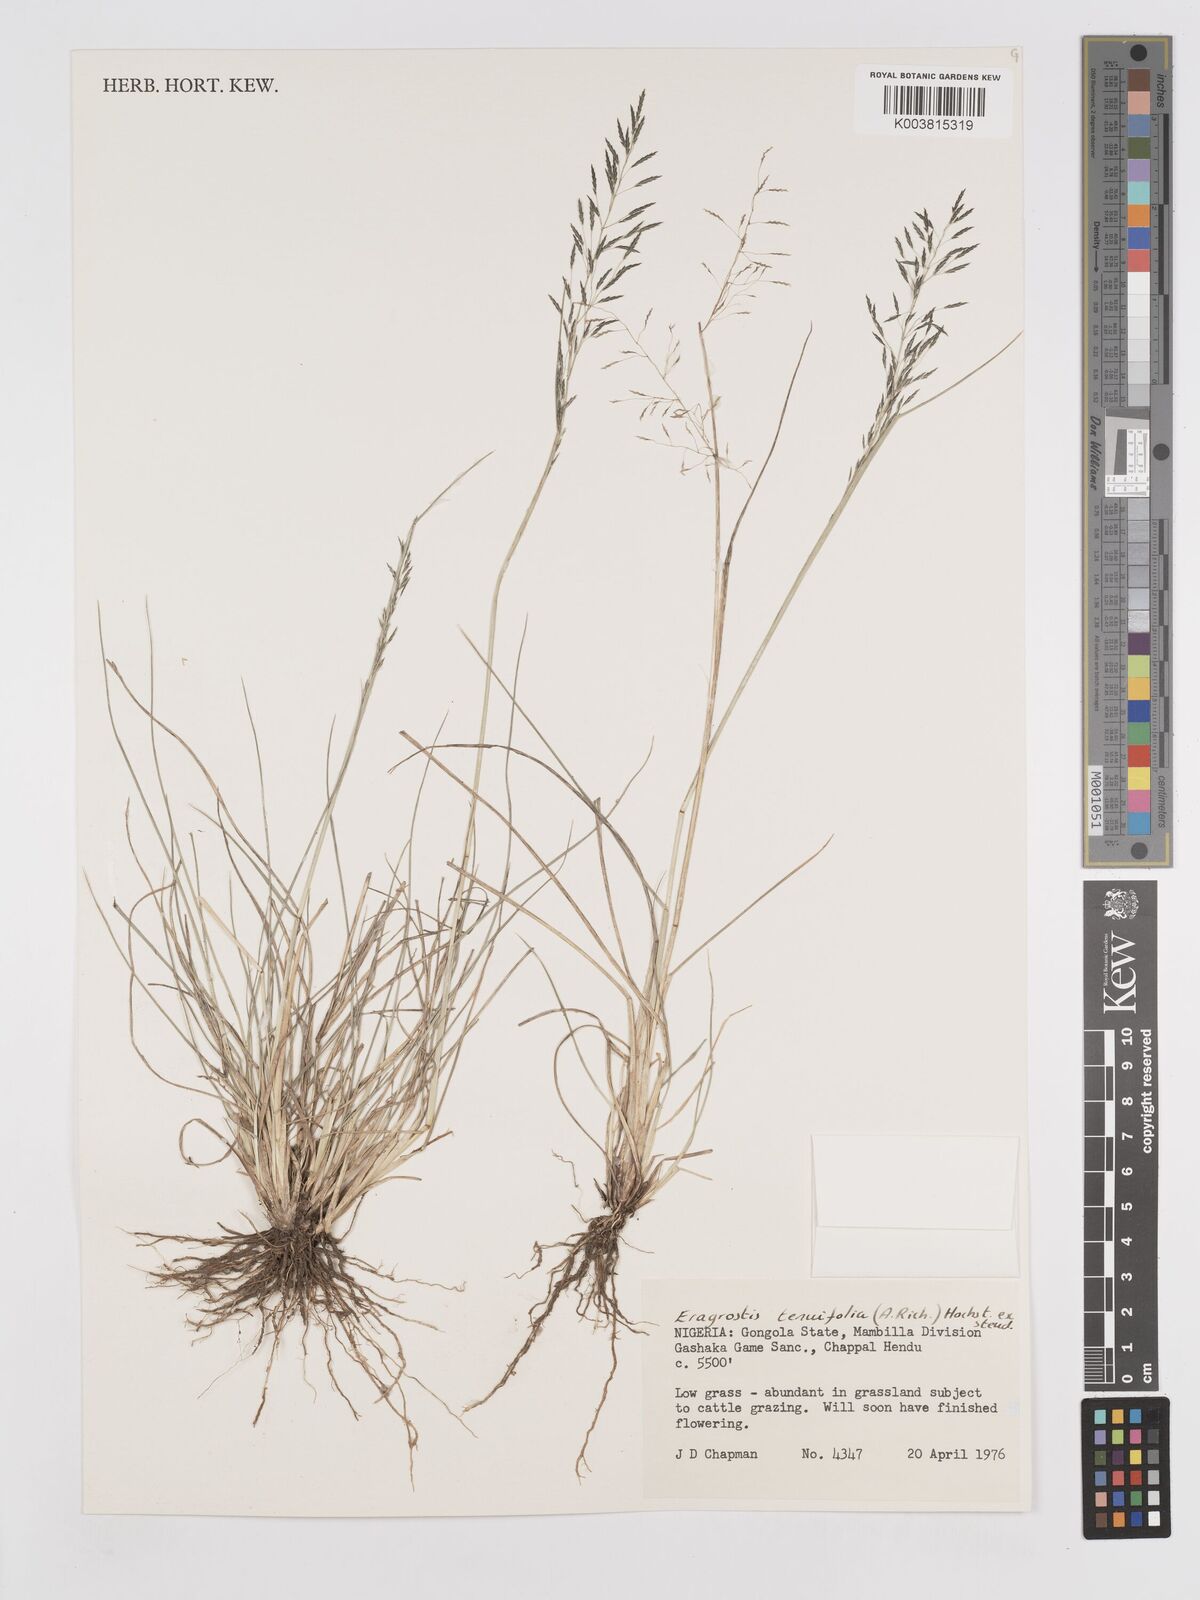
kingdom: Plantae
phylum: Tracheophyta
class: Liliopsida
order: Poales
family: Poaceae
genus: Eragrostis
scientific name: Eragrostis tenuifolia
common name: Elastic grass
